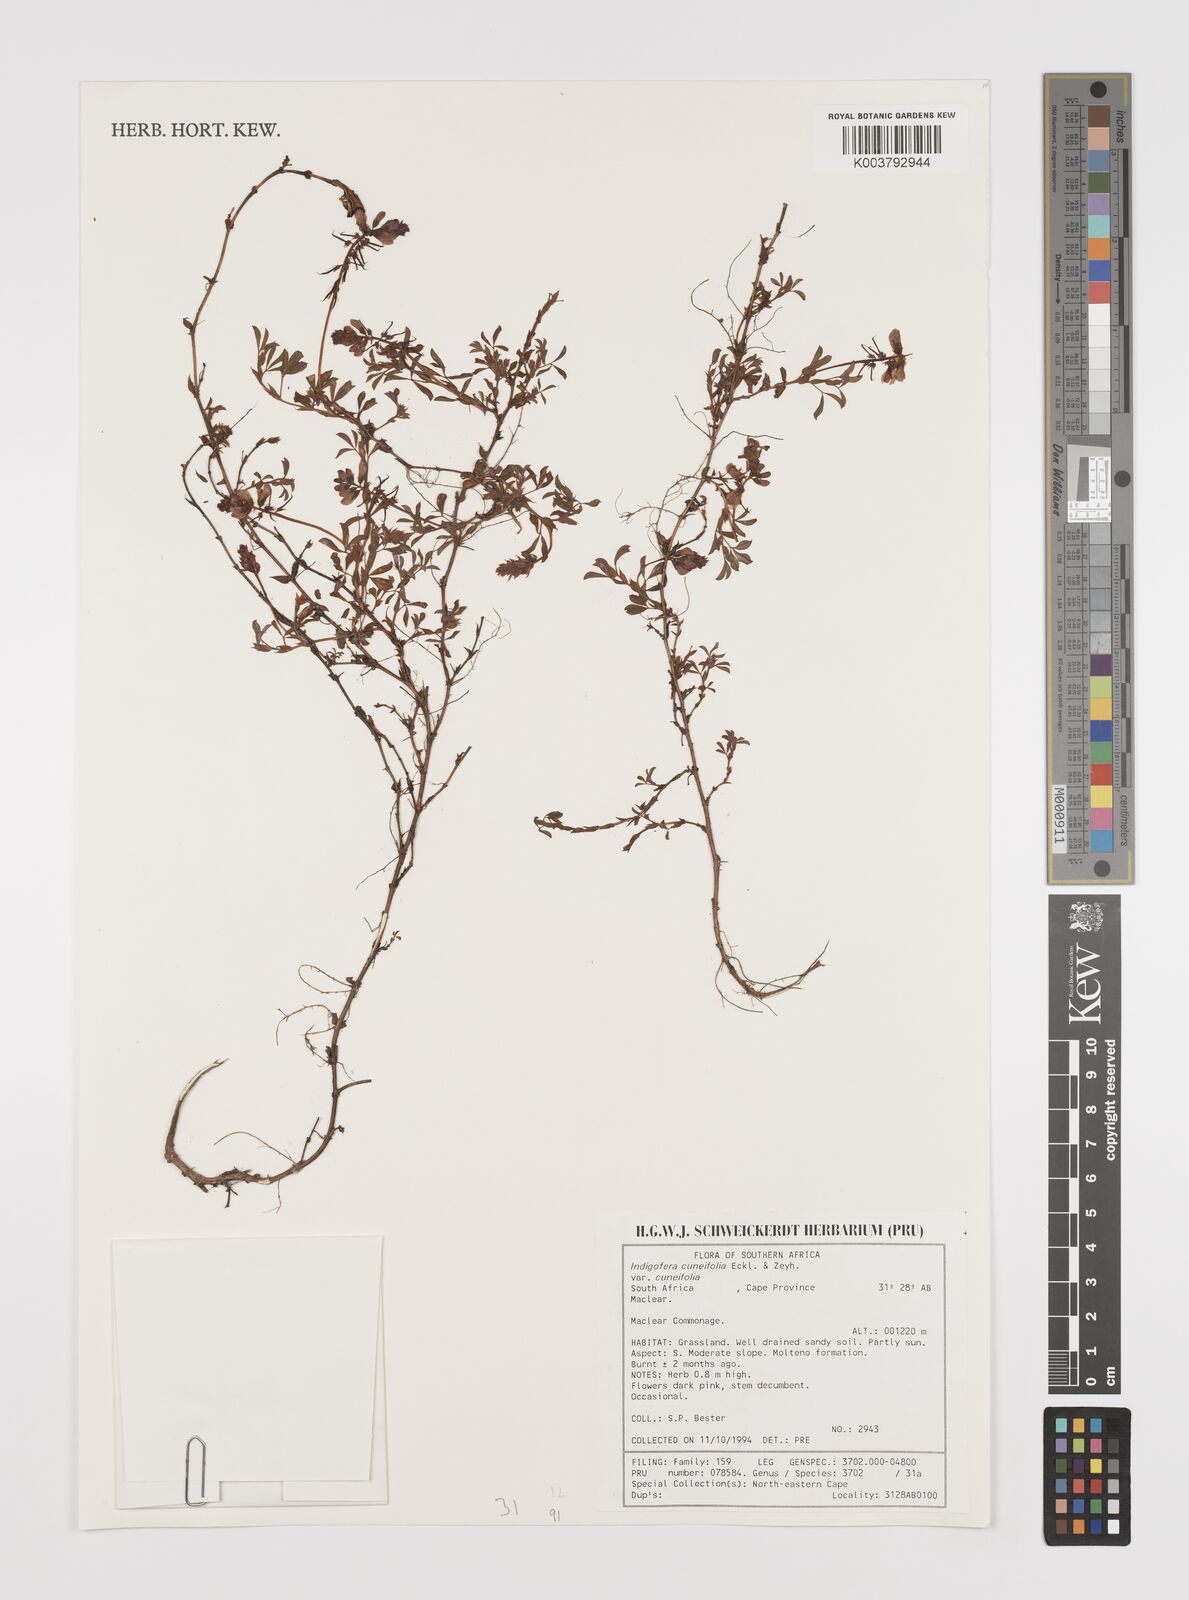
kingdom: Plantae
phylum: Tracheophyta
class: Magnoliopsida
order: Fabales
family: Fabaceae
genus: Indigofera
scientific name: Indigofera
